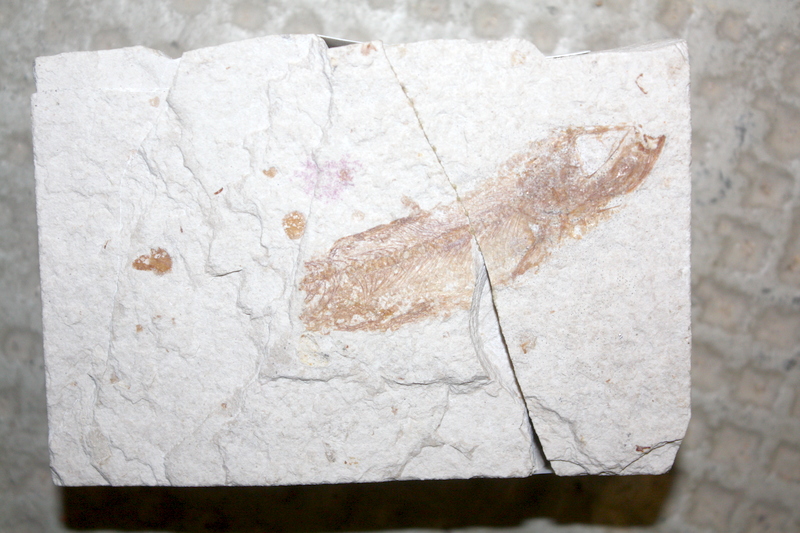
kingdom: Animalia
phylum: Chordata
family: Ascalaboidae
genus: Tharsis
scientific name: Tharsis dubius
